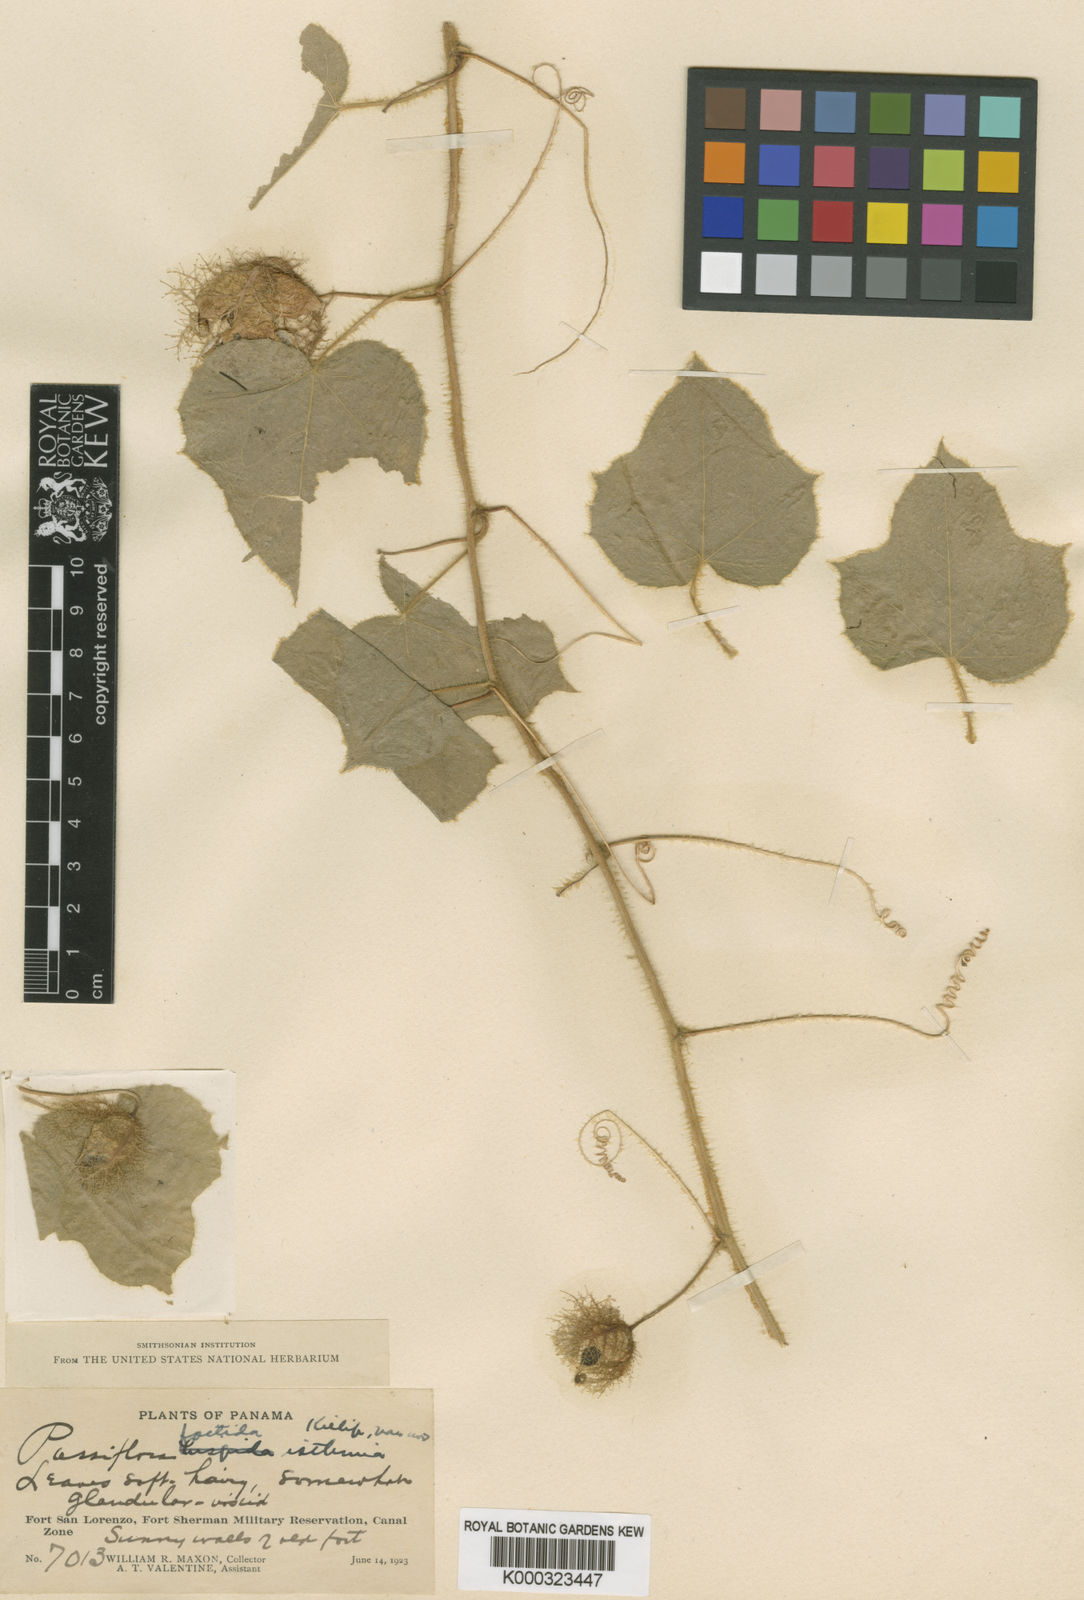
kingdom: Plantae
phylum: Tracheophyta
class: Magnoliopsida
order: Malpighiales
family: Passifloraceae
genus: Passiflora
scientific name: Passiflora vesicaria
